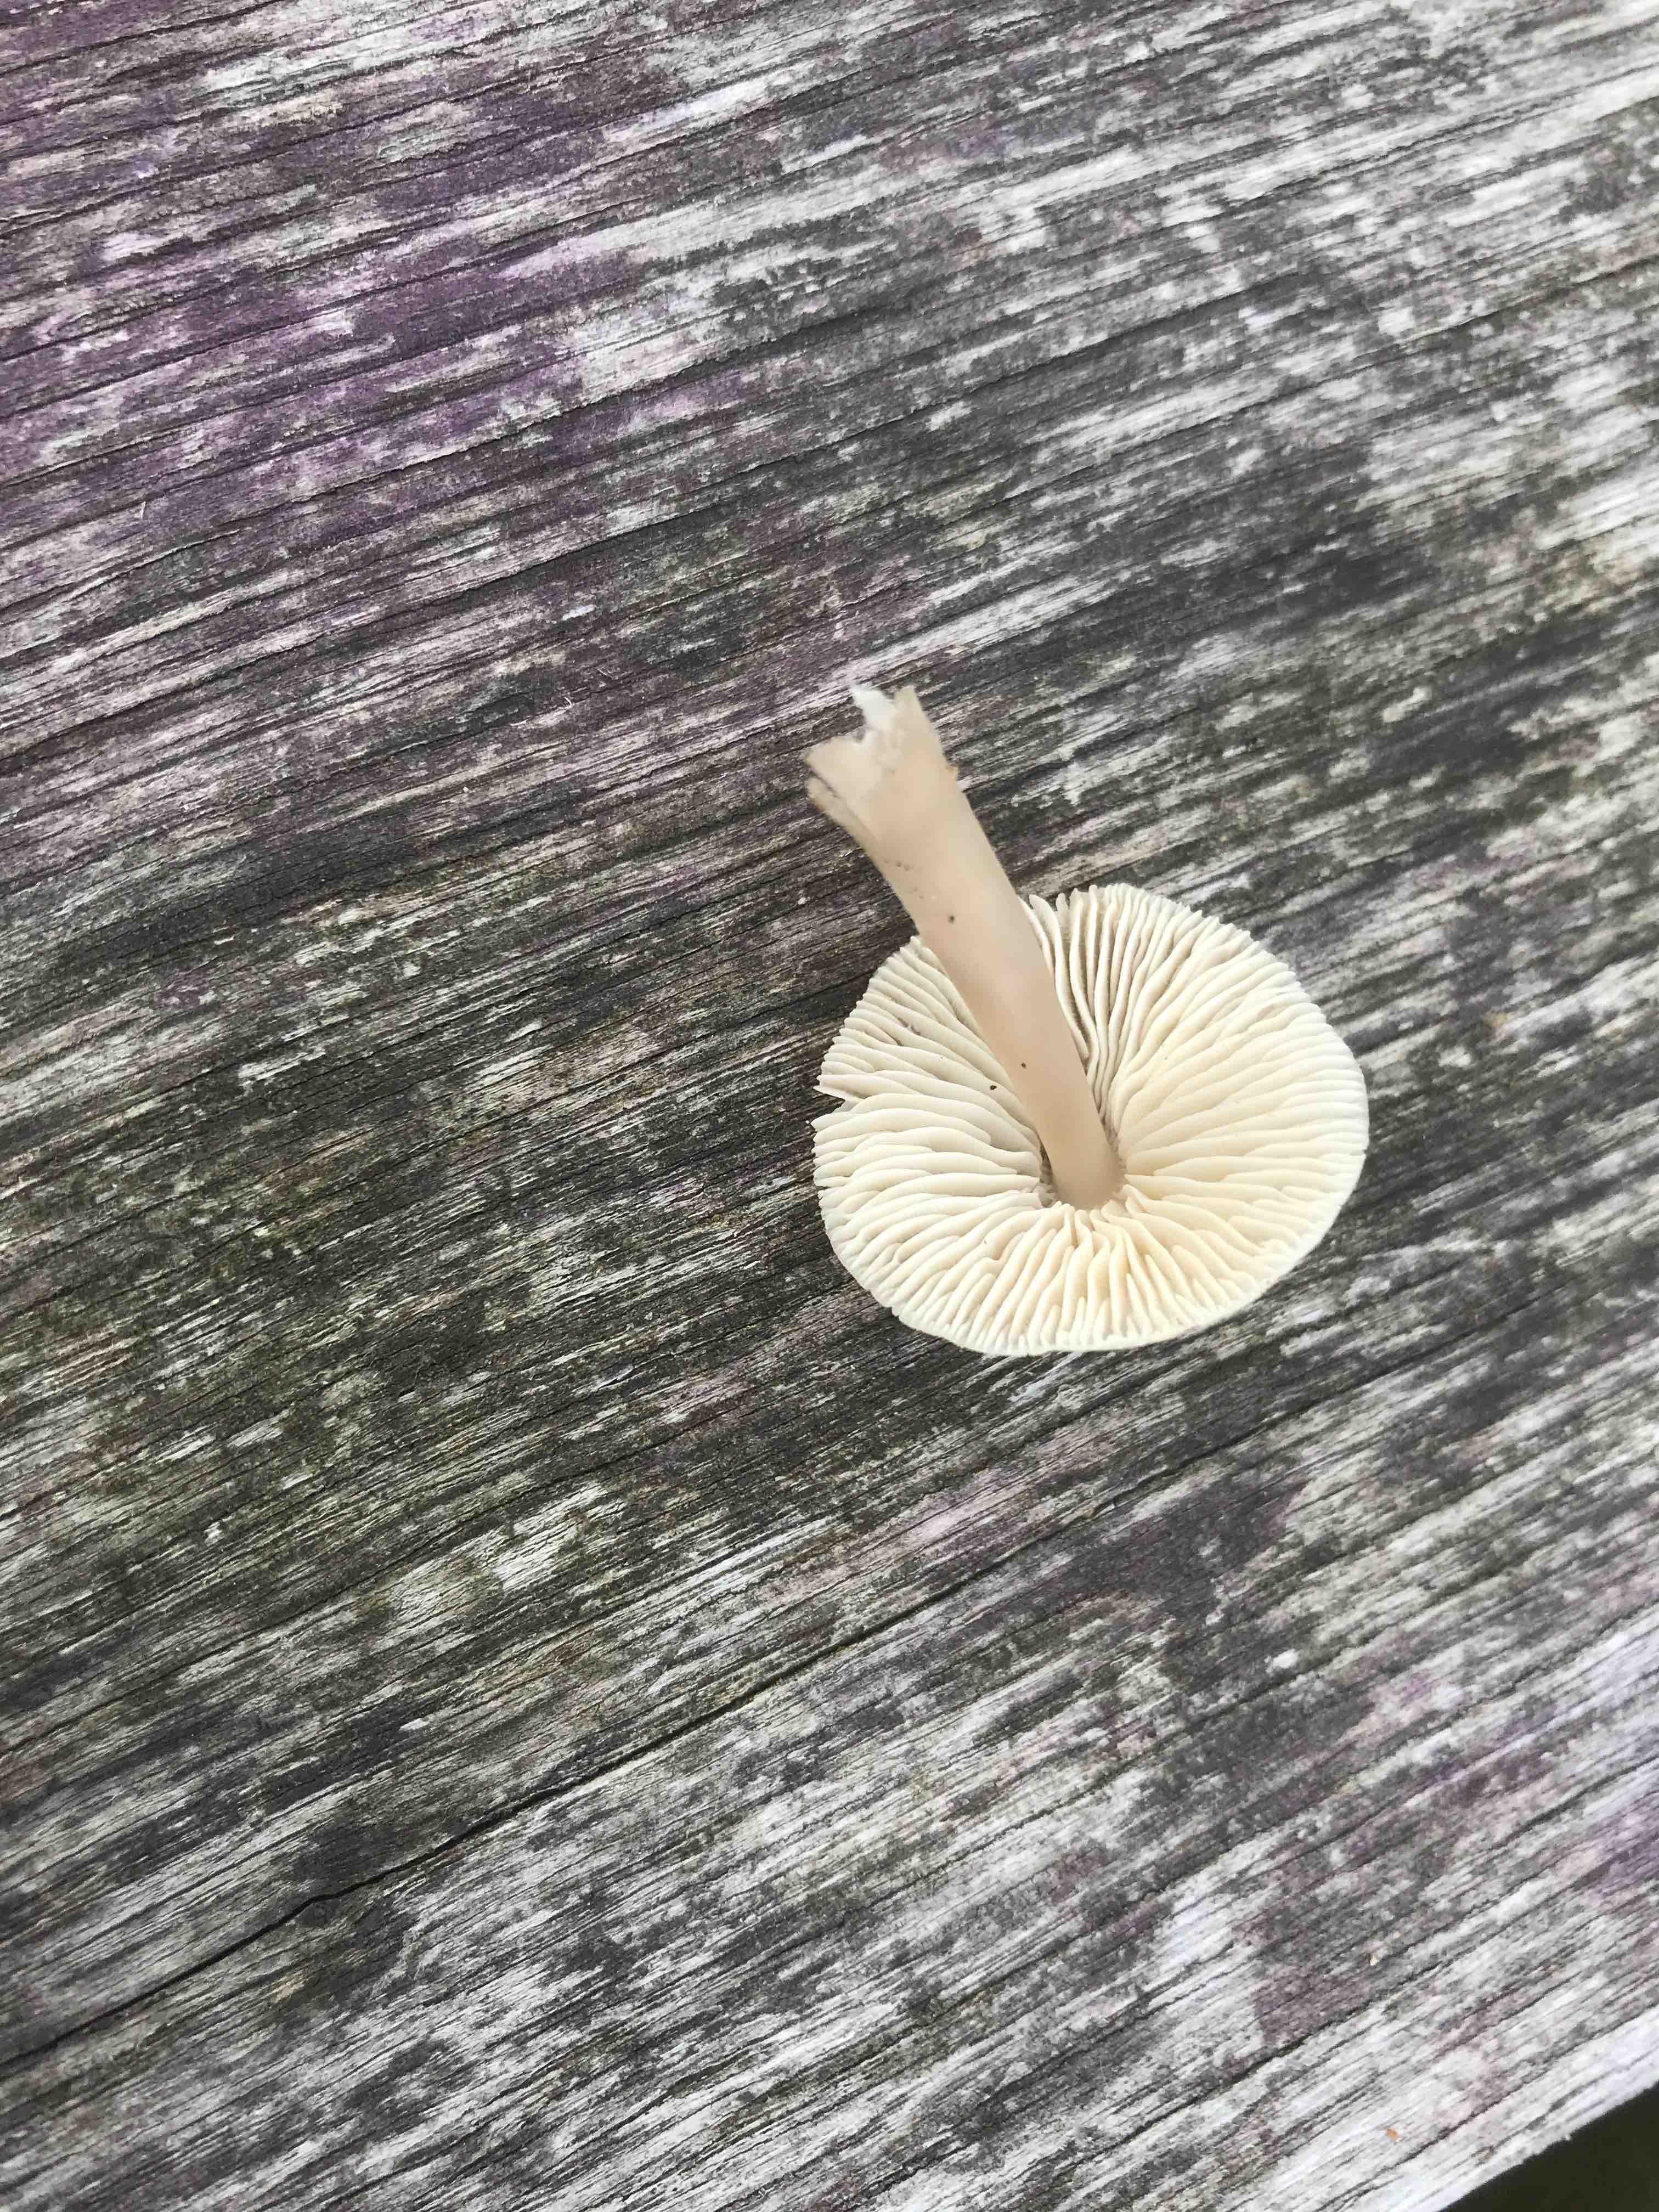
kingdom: Fungi
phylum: Basidiomycota
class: Agaricomycetes
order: Agaricales
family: Mycenaceae
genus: Mycena
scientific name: Mycena galericulata
